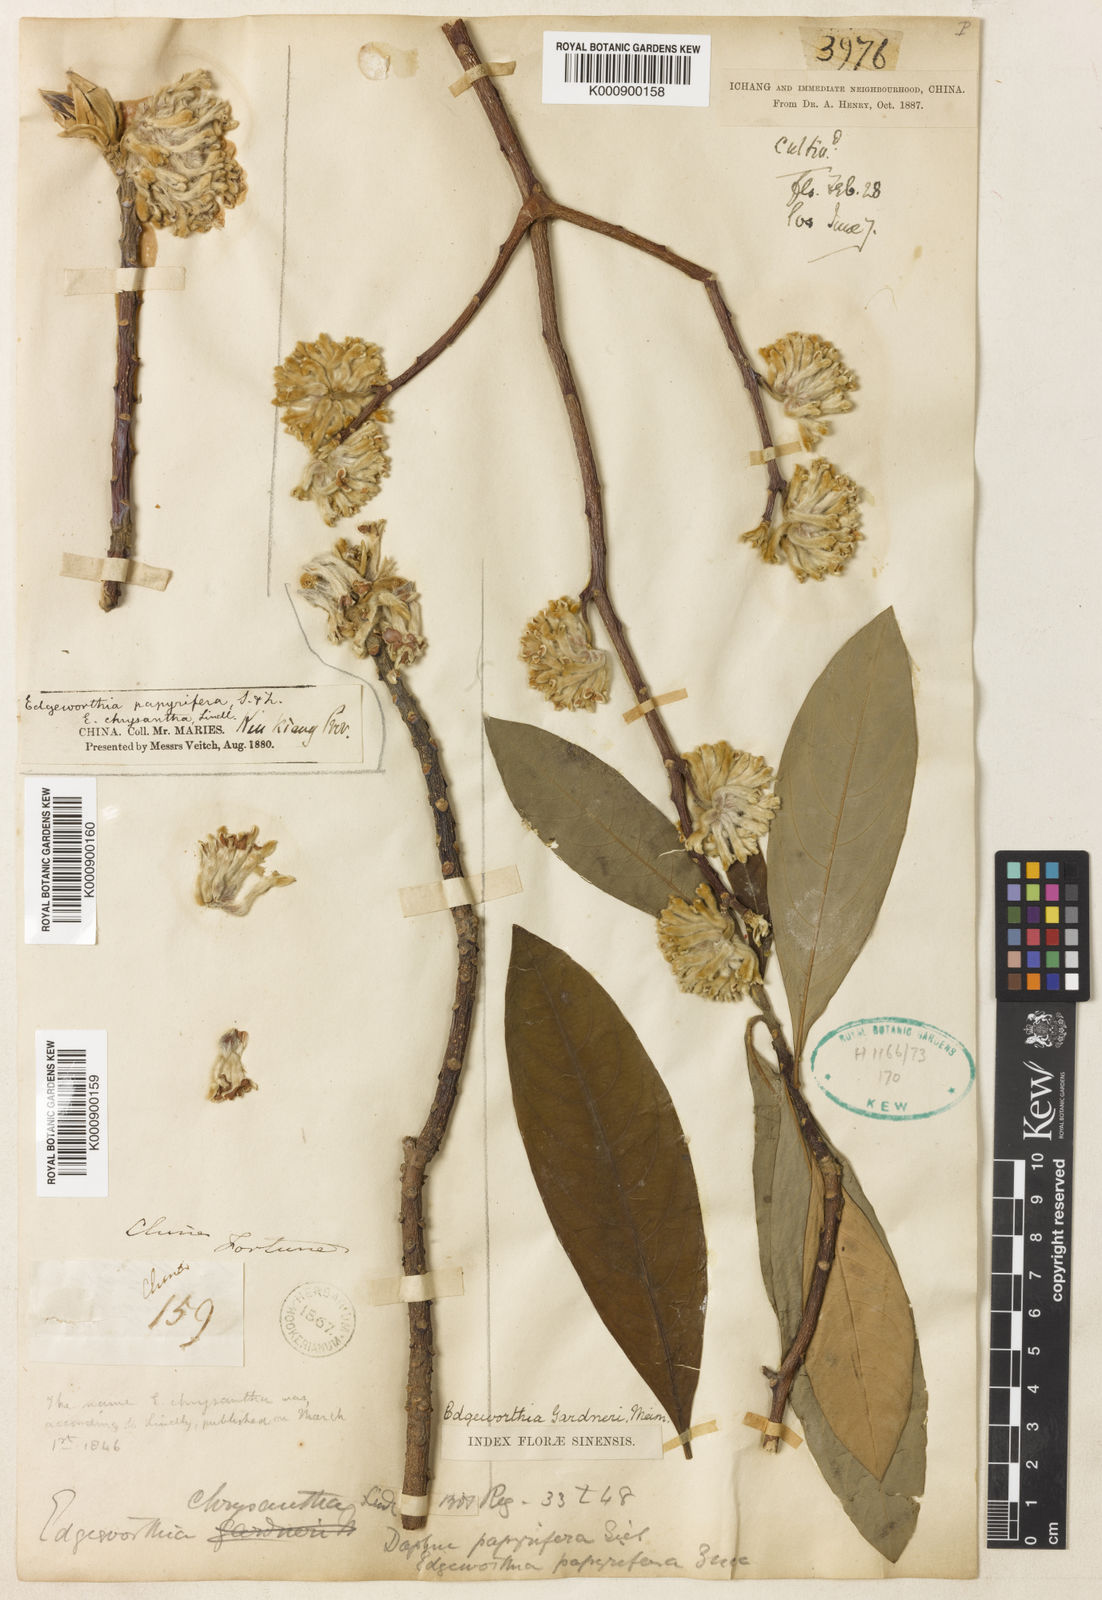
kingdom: Plantae
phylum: Tracheophyta
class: Magnoliopsida
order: Malvales
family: Thymelaeaceae
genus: Edgeworthia
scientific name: Edgeworthia chrysantha
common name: Oriental paperbush
